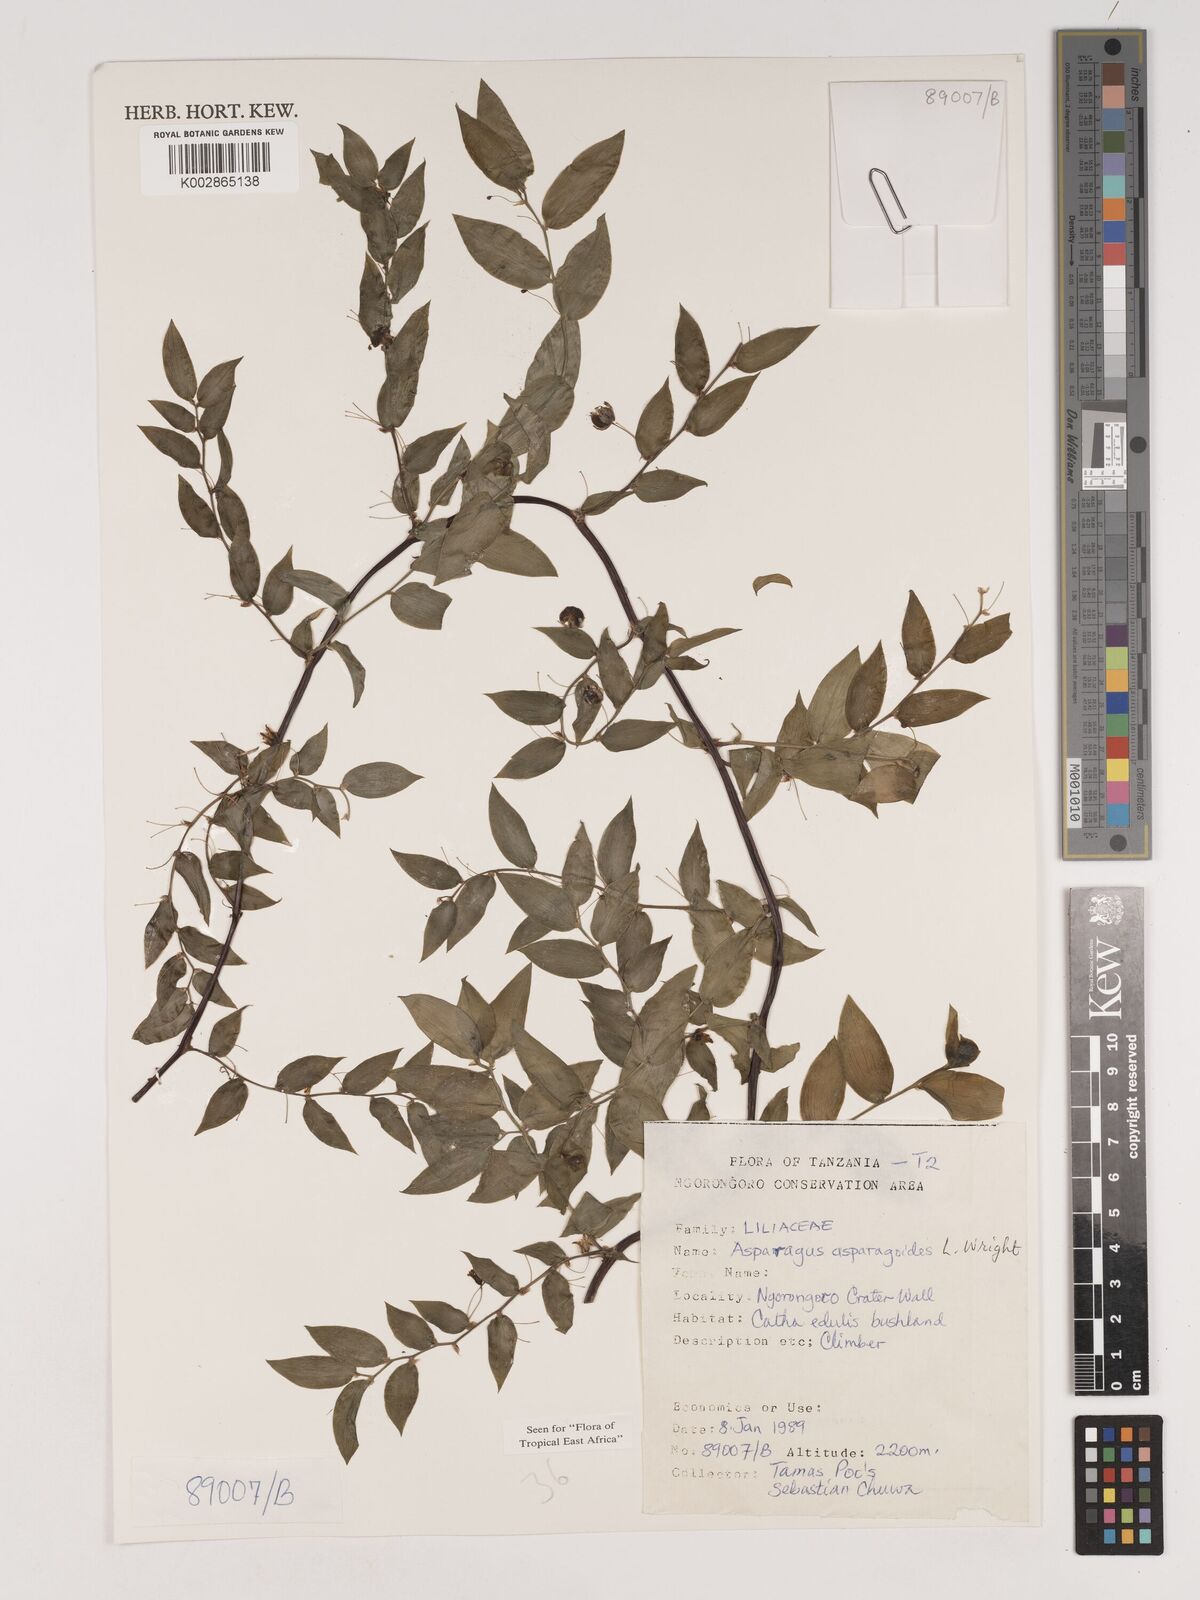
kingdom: Plantae
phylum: Tracheophyta
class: Liliopsida
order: Asparagales
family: Asparagaceae
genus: Asparagus
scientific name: Asparagus asparagoides
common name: African asparagus fern
